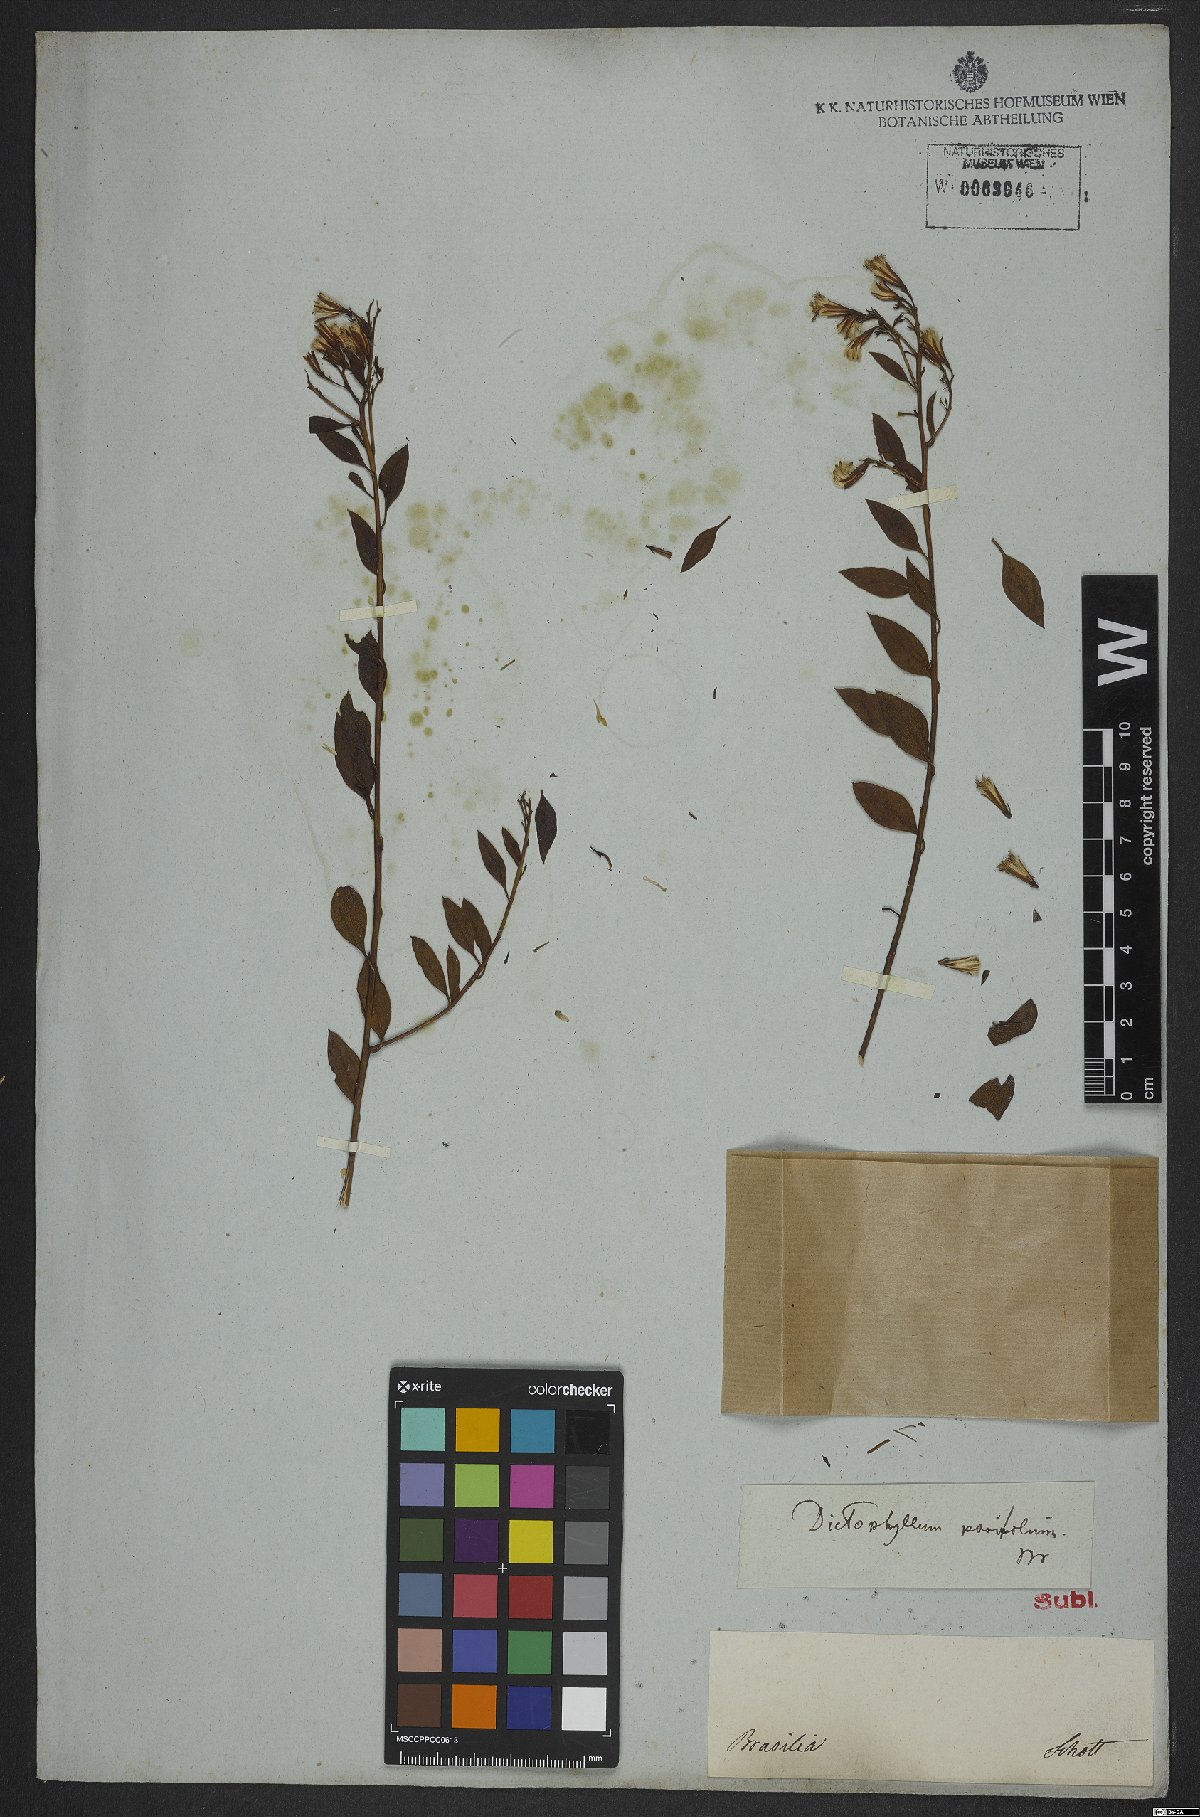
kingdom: Plantae
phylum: Tracheophyta
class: Magnoliopsida
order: Asterales
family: Asteraceae
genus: Trixis
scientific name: Trixis
